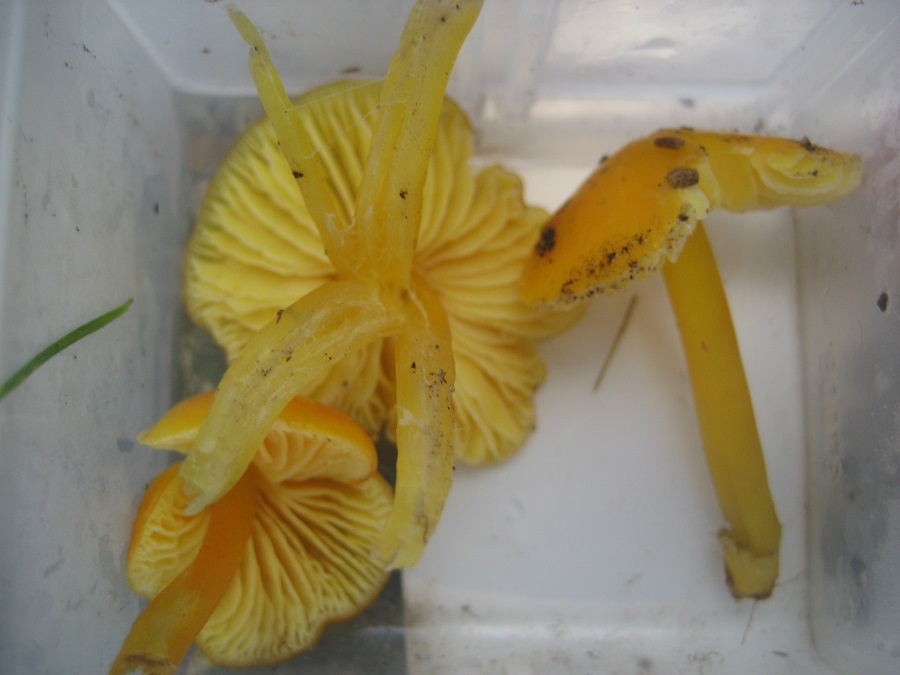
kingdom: Fungi
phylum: Basidiomycota
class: Agaricomycetes
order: Agaricales
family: Hygrophoraceae
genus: Hygrocybe
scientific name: Hygrocybe chlorophana
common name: gul vokshat
